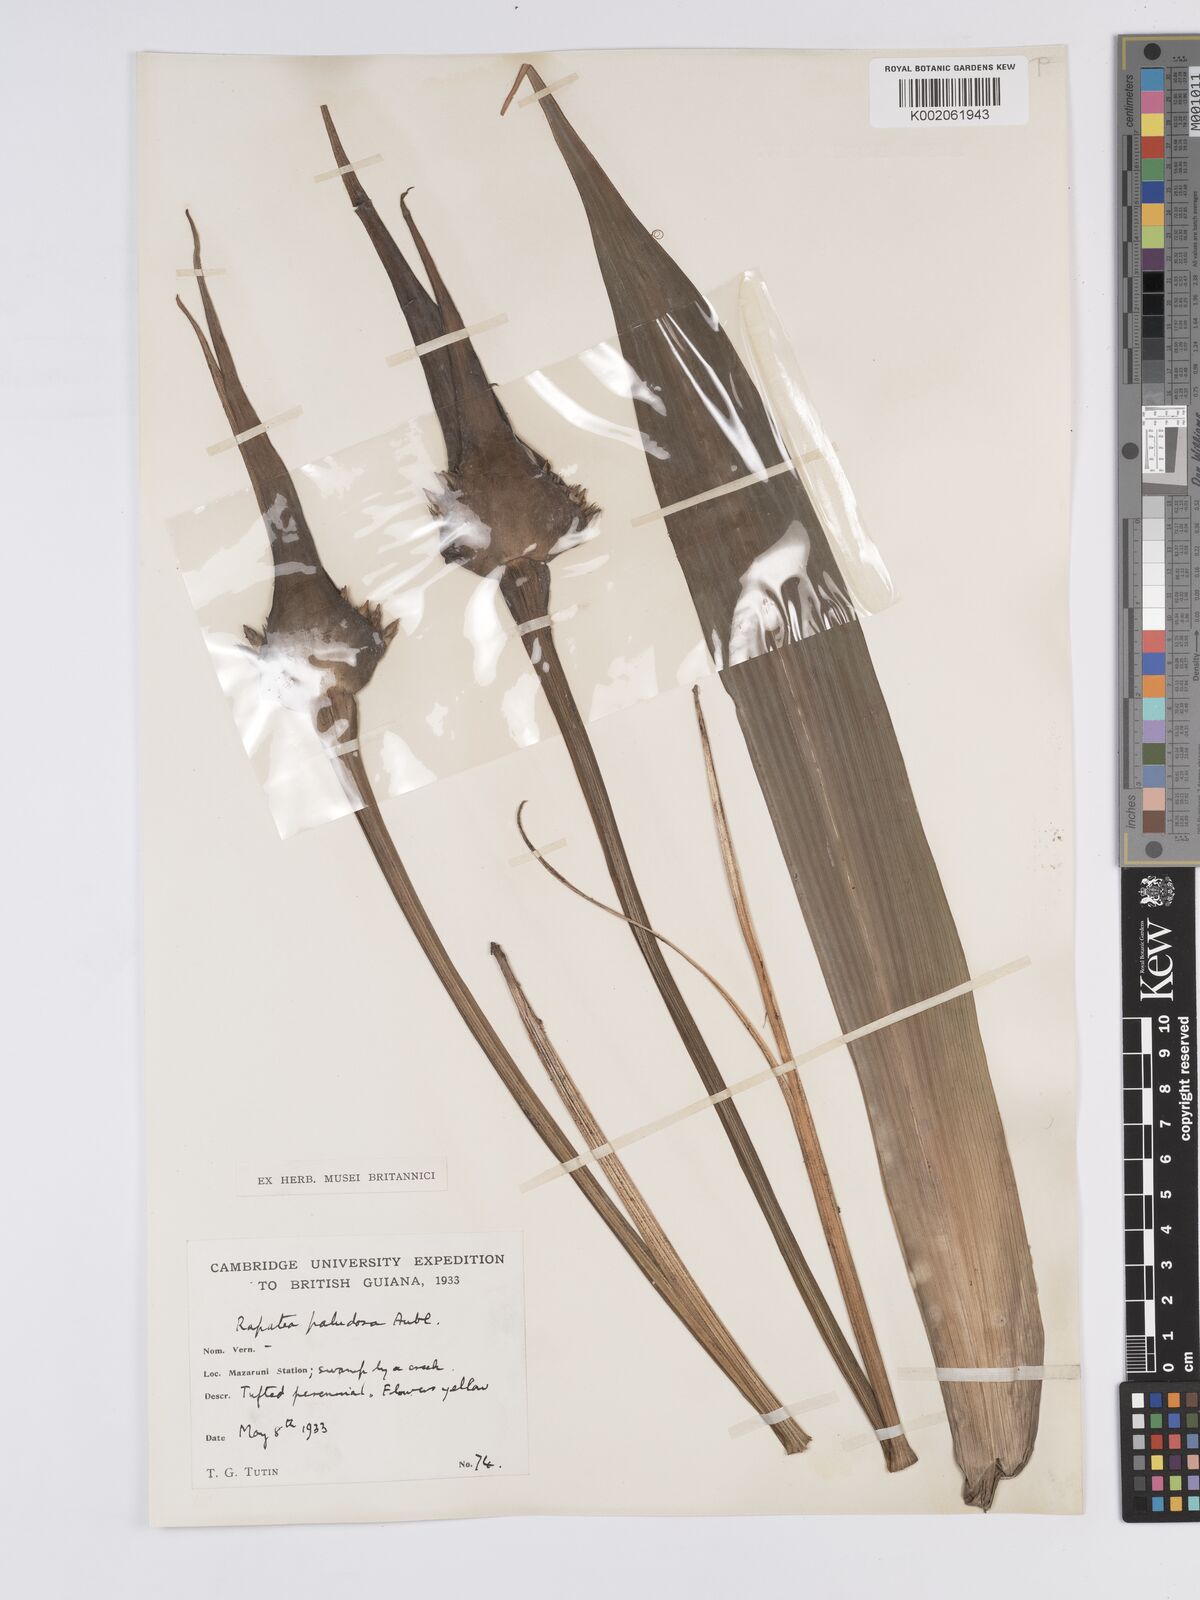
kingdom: Plantae
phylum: Tracheophyta
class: Liliopsida
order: Poales
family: Rapateaceae
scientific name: Rapateaceae
